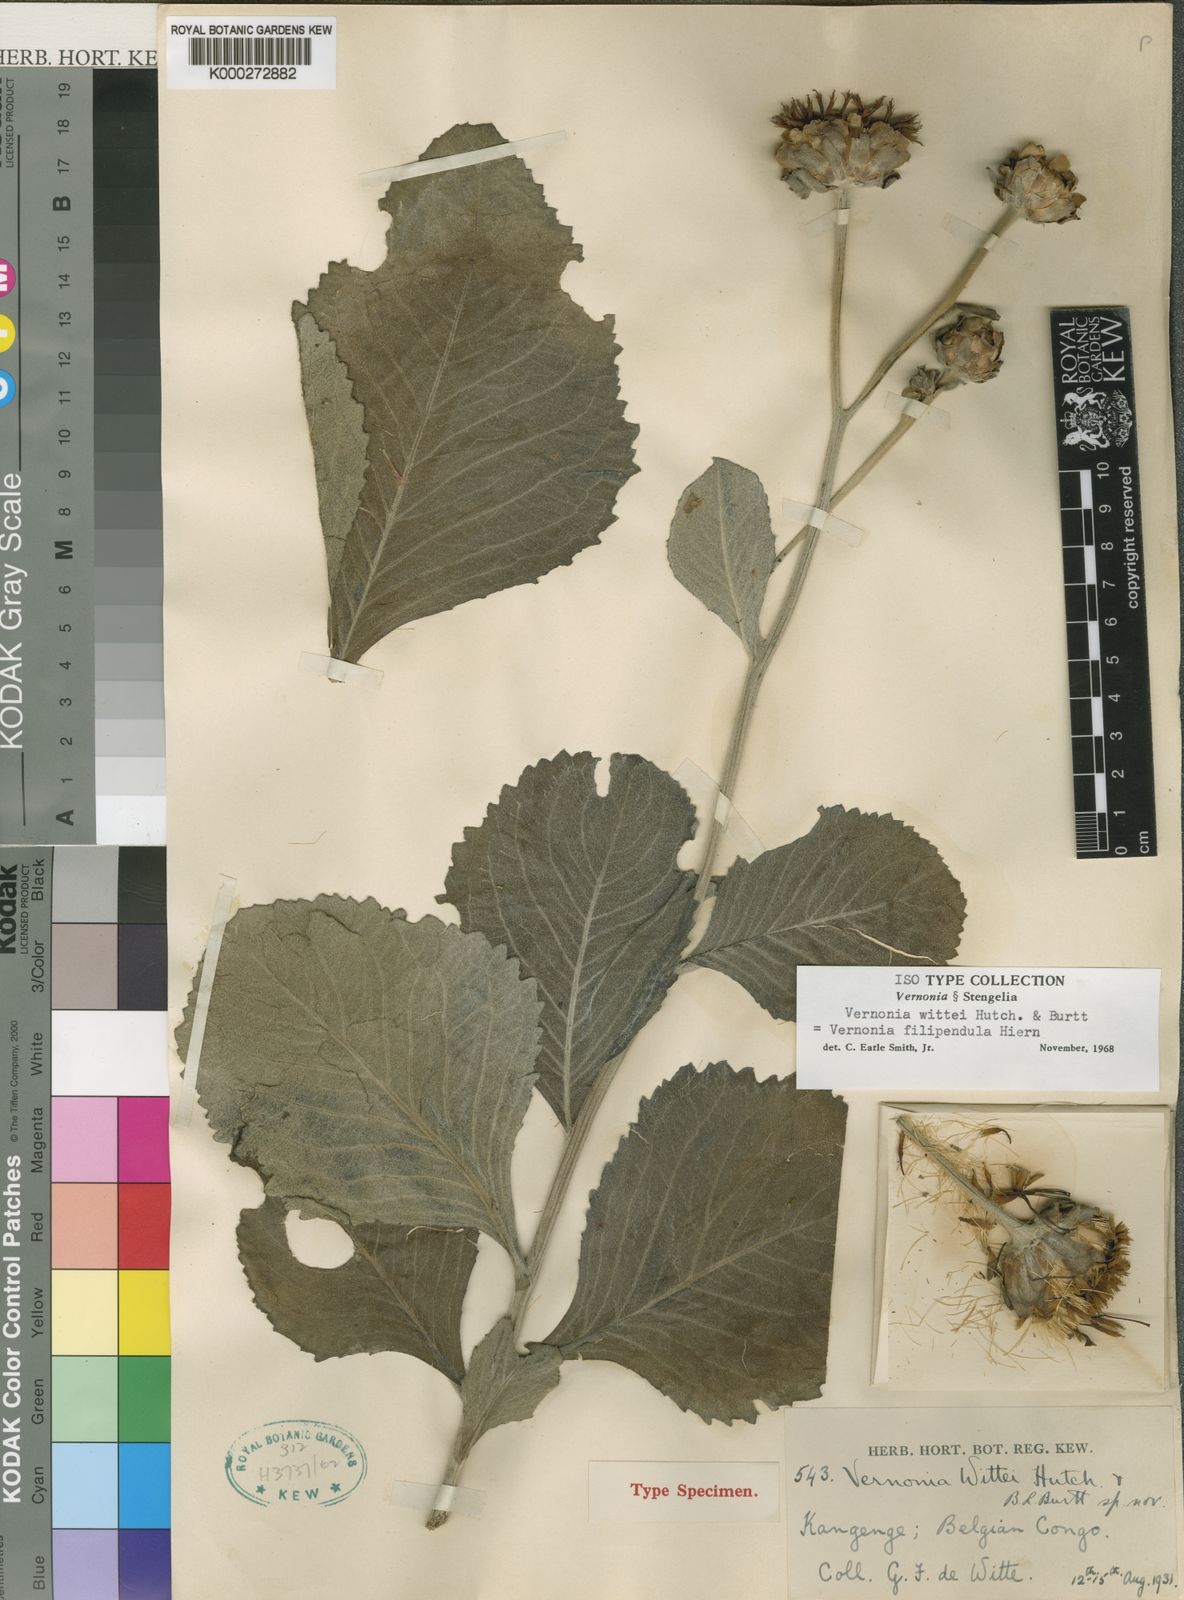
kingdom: Plantae
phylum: Tracheophyta
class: Magnoliopsida
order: Asterales
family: Asteraceae
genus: Vernonia
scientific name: Vernonia
